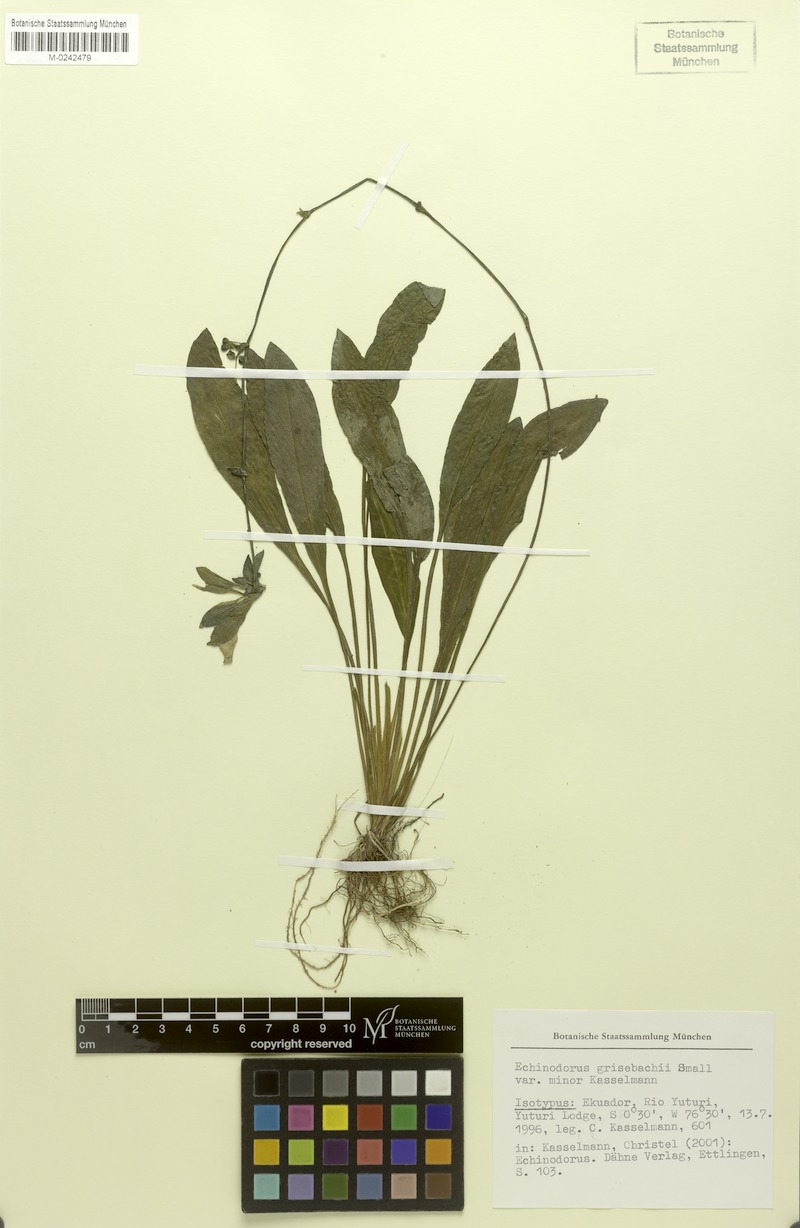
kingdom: Plantae
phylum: Tracheophyta
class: Liliopsida
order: Alismatales
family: Alismataceae
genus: Aquarius
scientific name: Aquarius grisebachii
